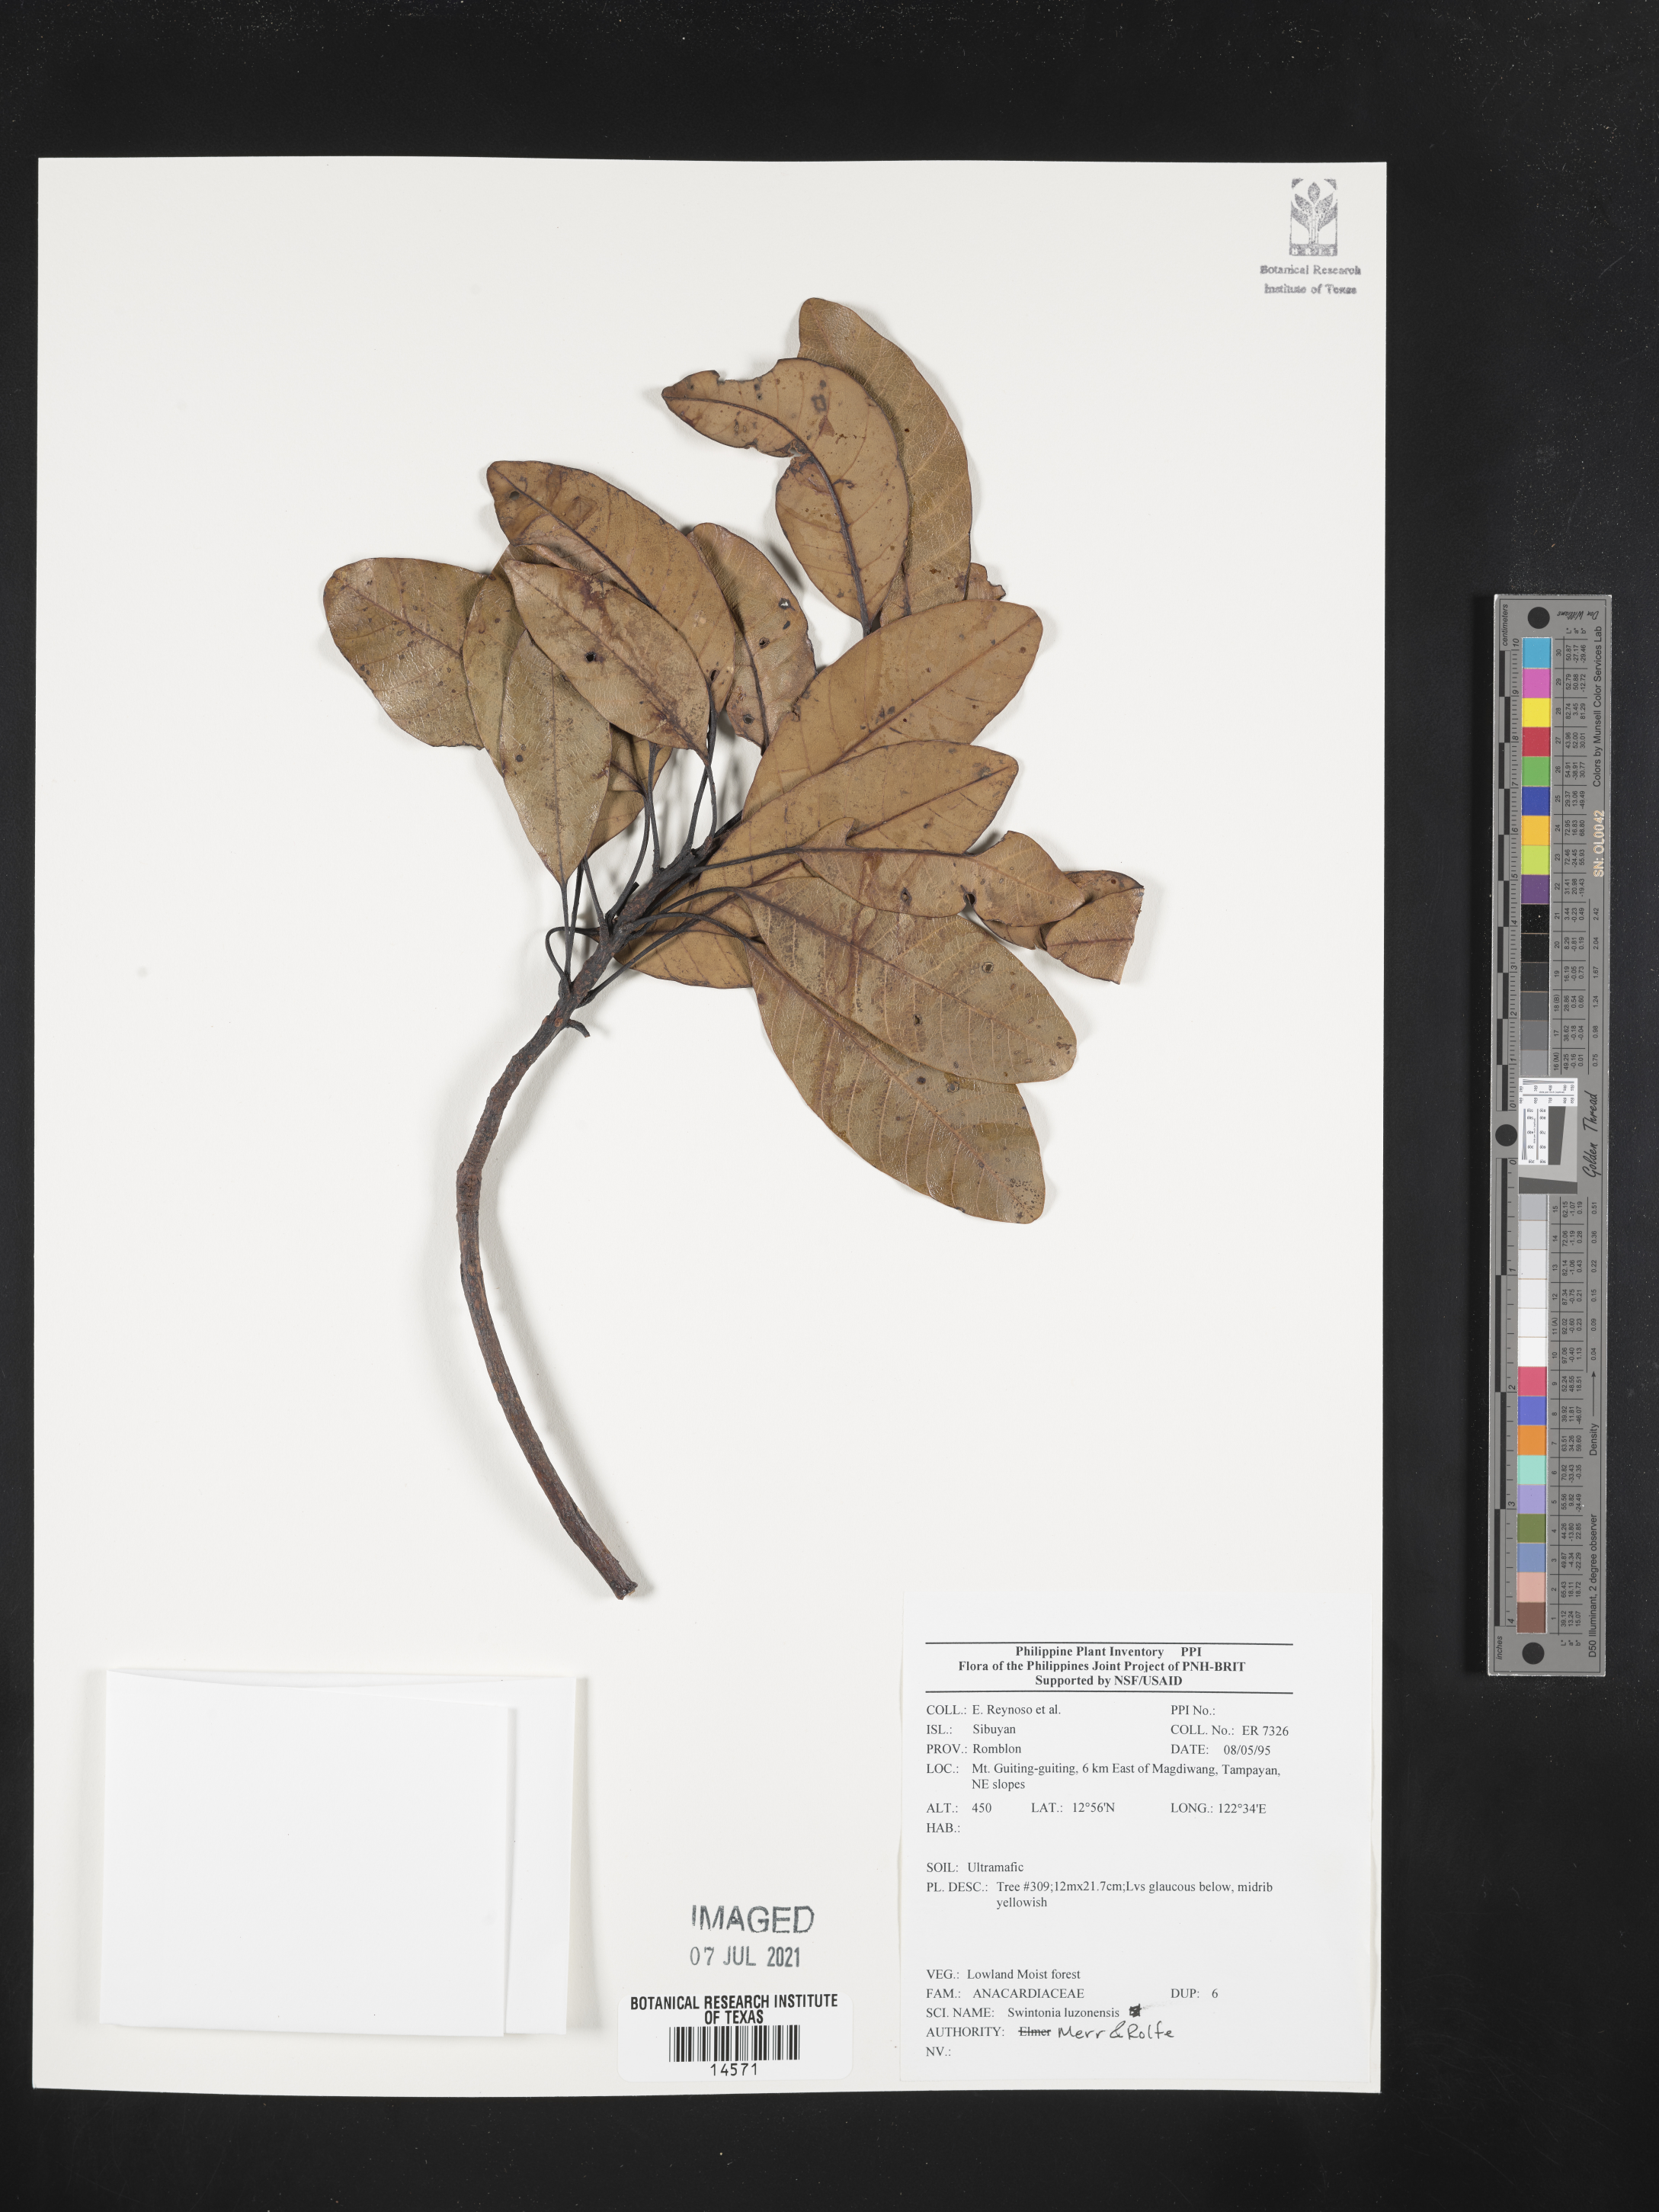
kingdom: Plantae
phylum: Tracheophyta
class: Magnoliopsida
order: Sapindales
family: Anacardiaceae
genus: Swintonia
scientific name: Swintonia acuta
